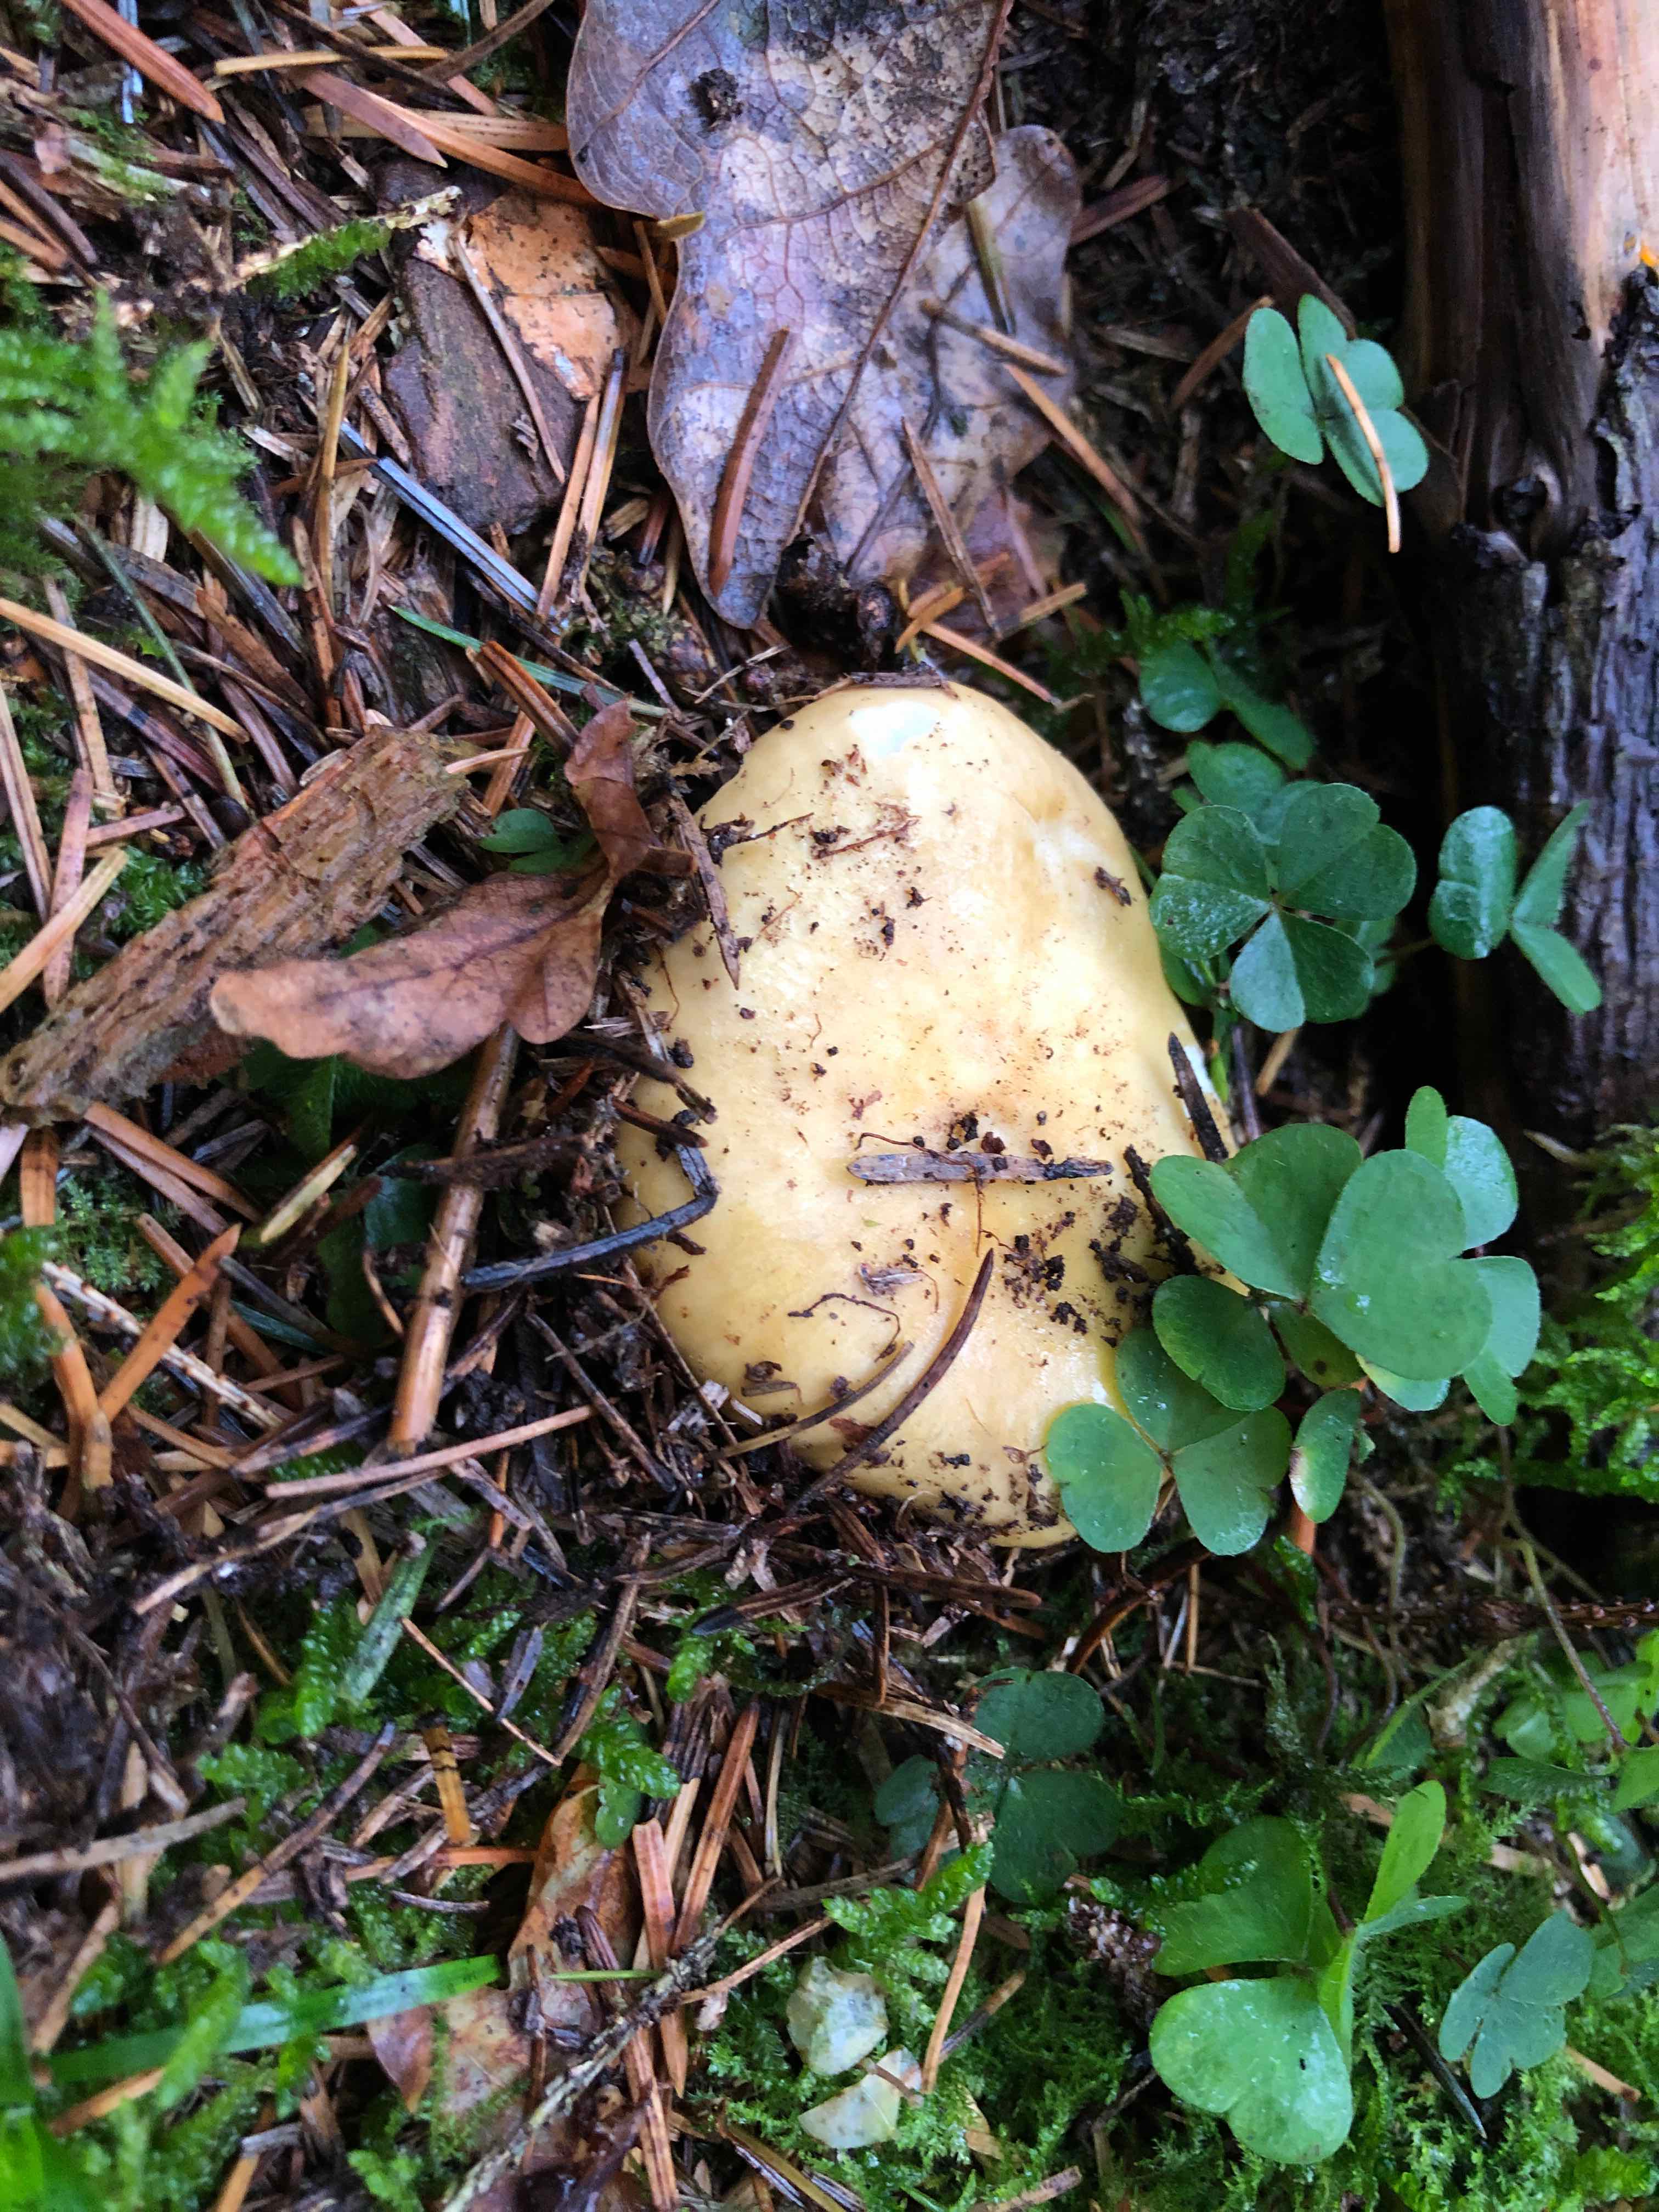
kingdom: Fungi
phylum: Basidiomycota
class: Agaricomycetes
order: Russulales
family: Russulaceae
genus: Russula
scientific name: Russula ochroleuca
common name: okkergul skørhat
